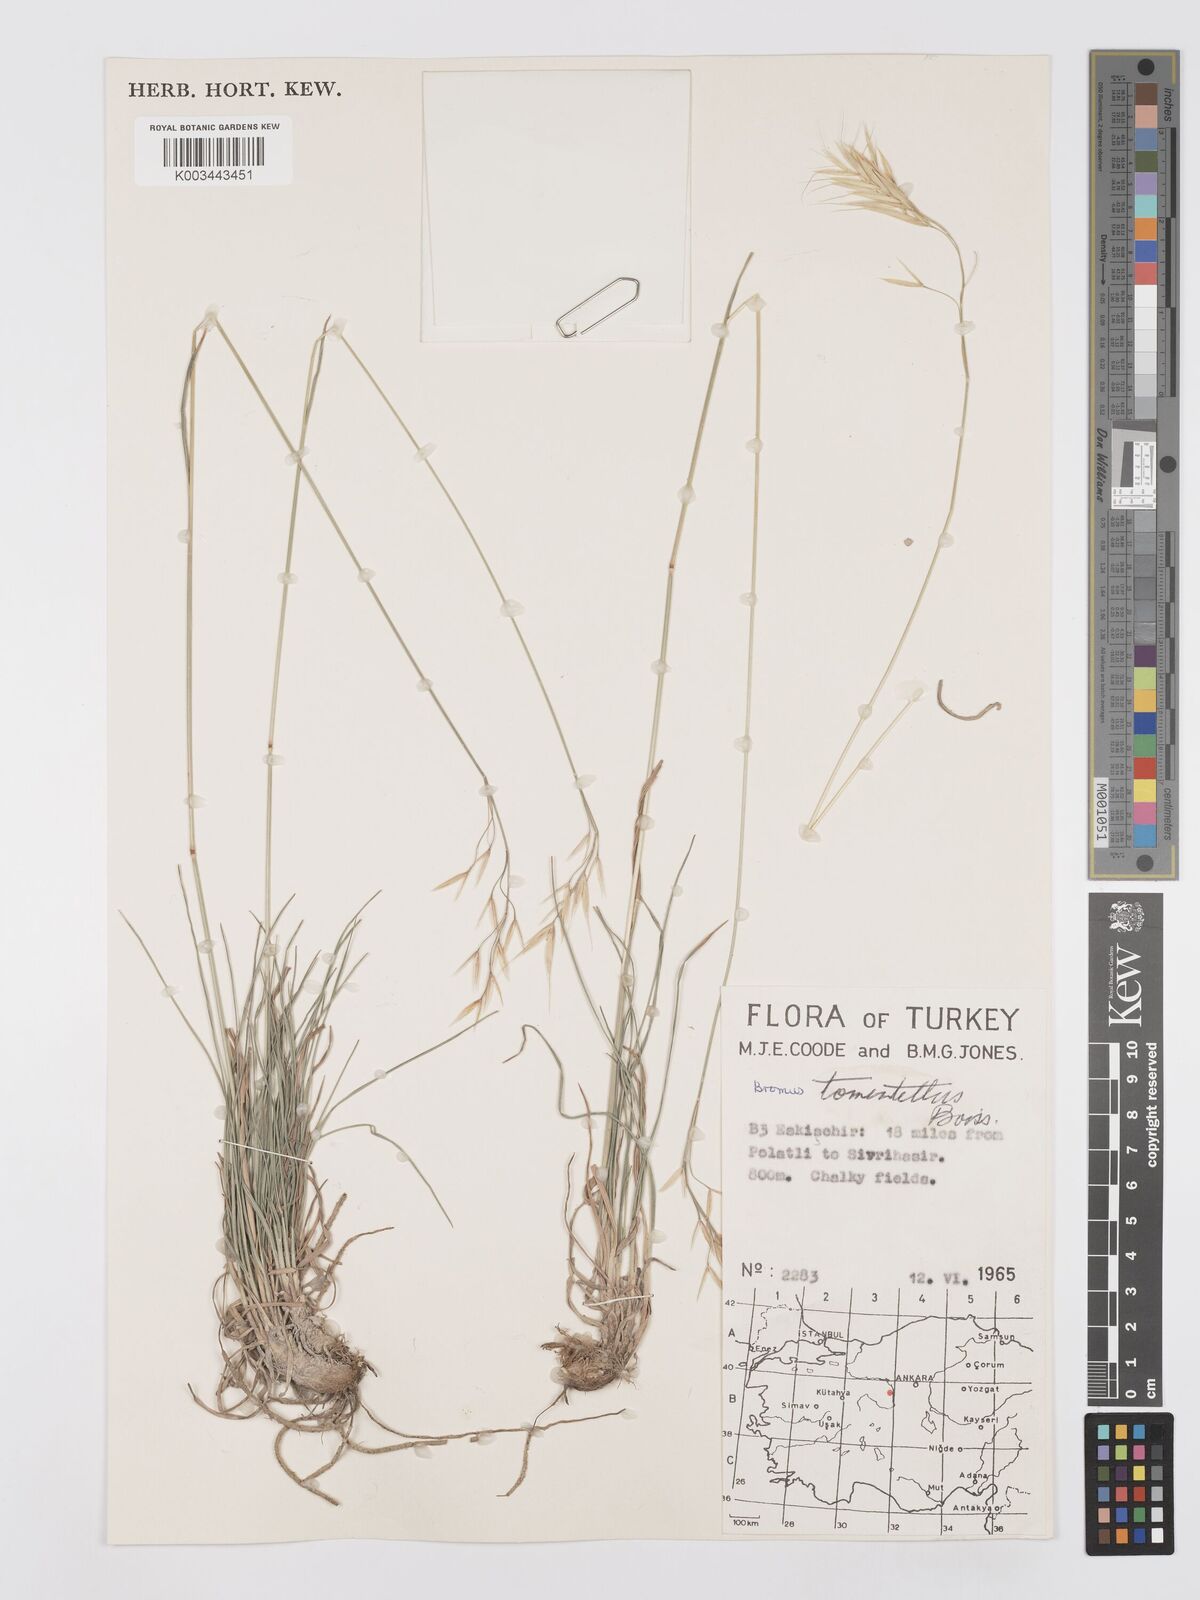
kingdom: Plantae
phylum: Tracheophyta
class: Liliopsida
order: Poales
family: Poaceae
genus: Bromus
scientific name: Bromus tomentellus
